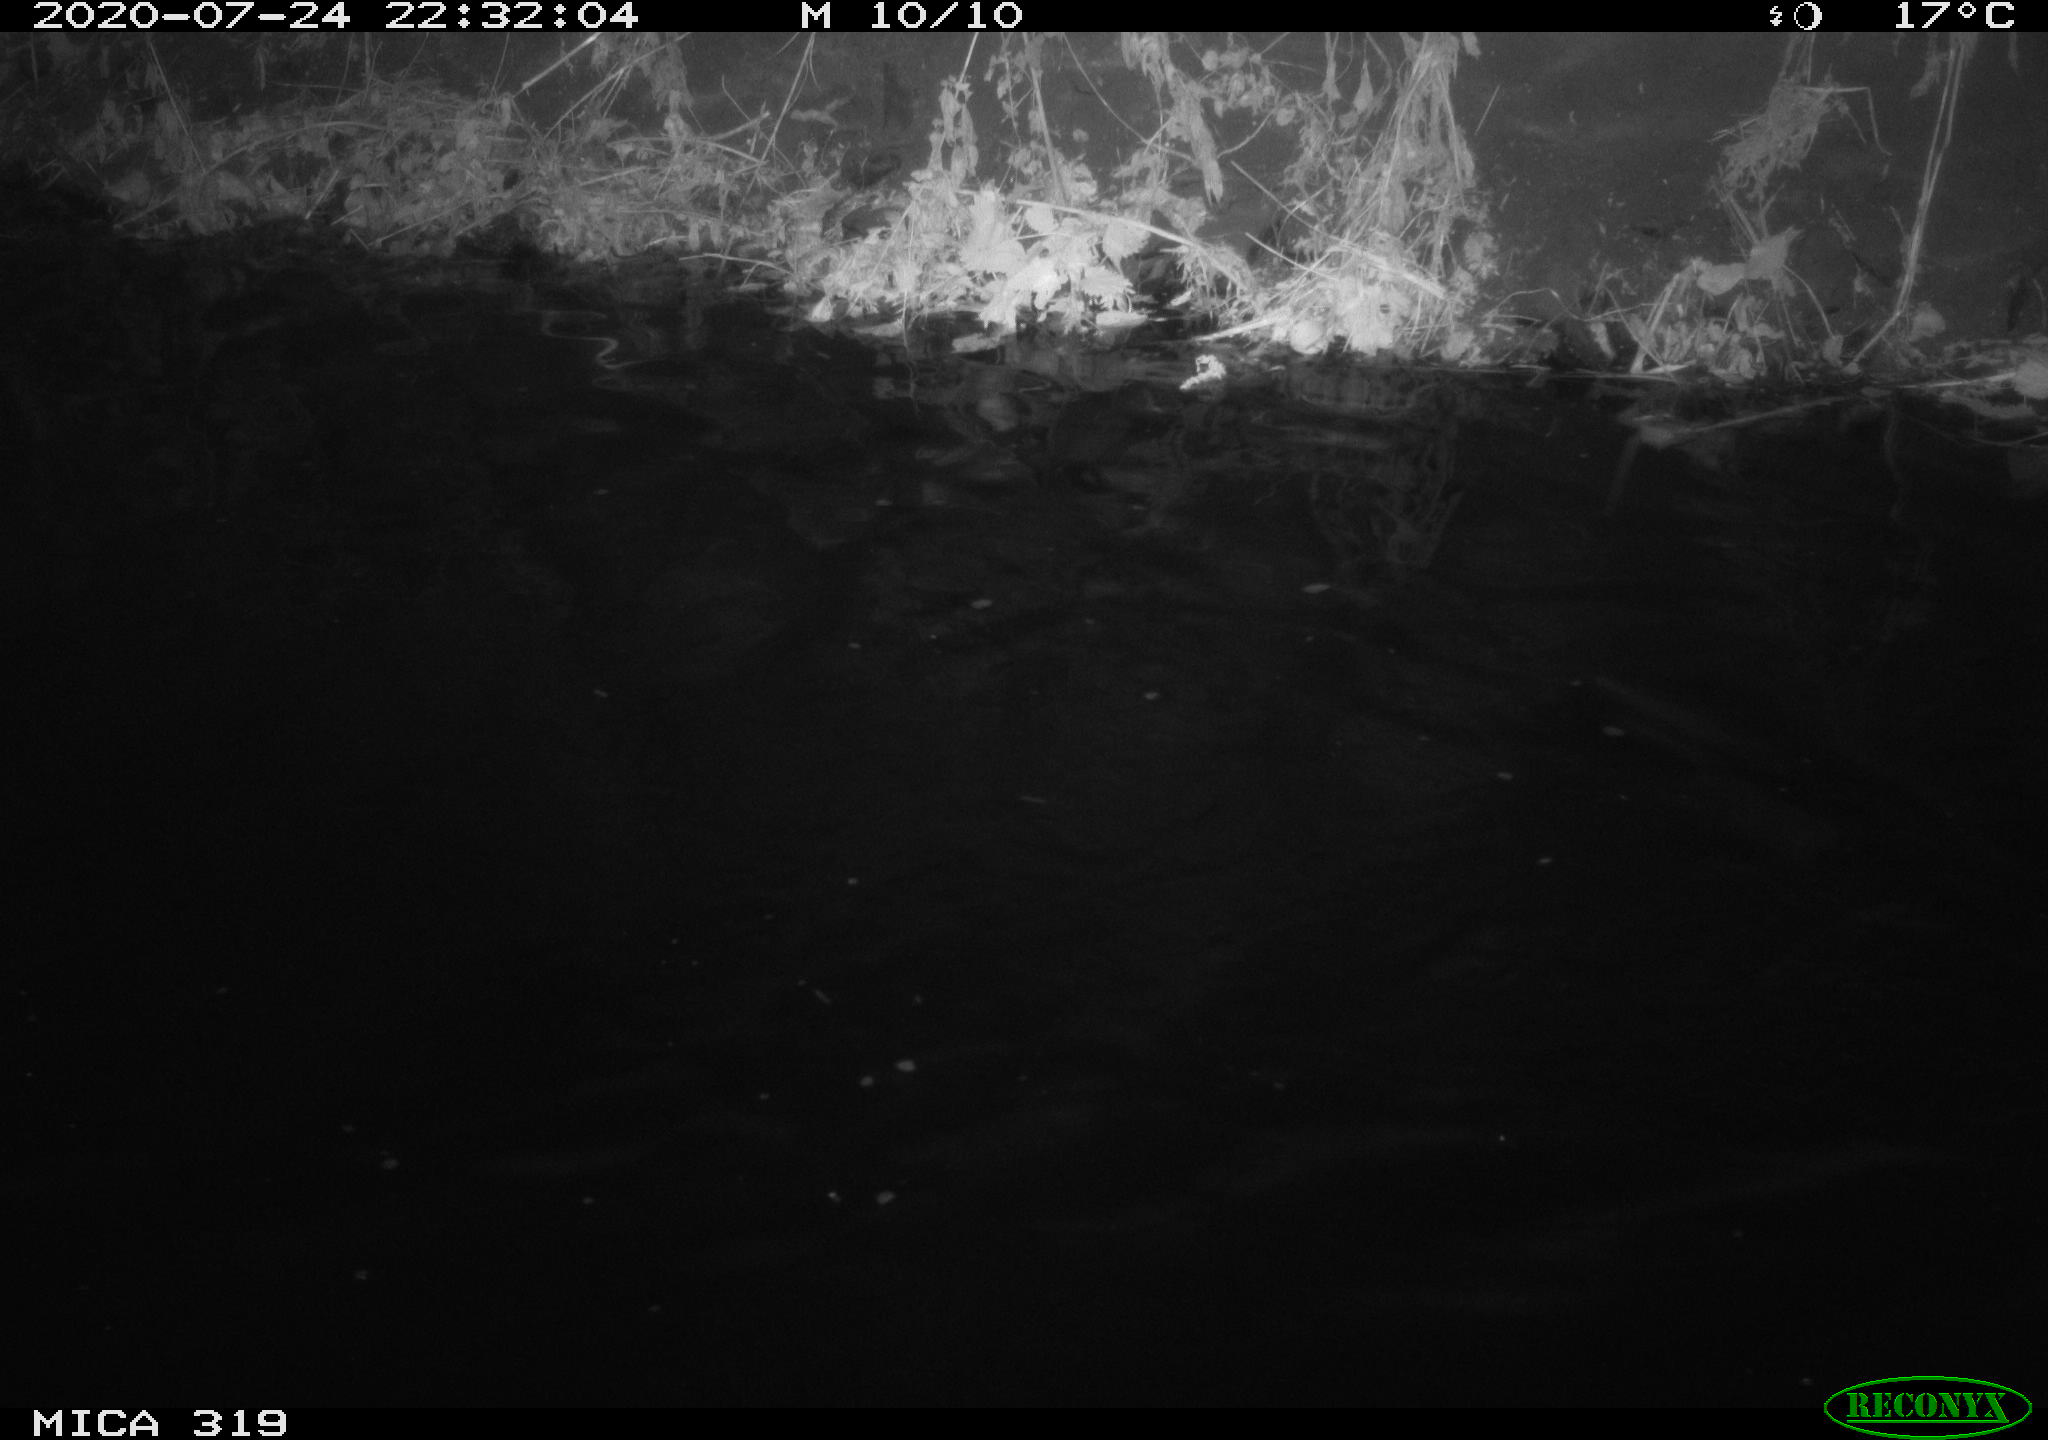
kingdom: Animalia
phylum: Chordata
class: Aves
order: Anseriformes
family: Anatidae
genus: Anas
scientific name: Anas platyrhynchos
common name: Mallard
